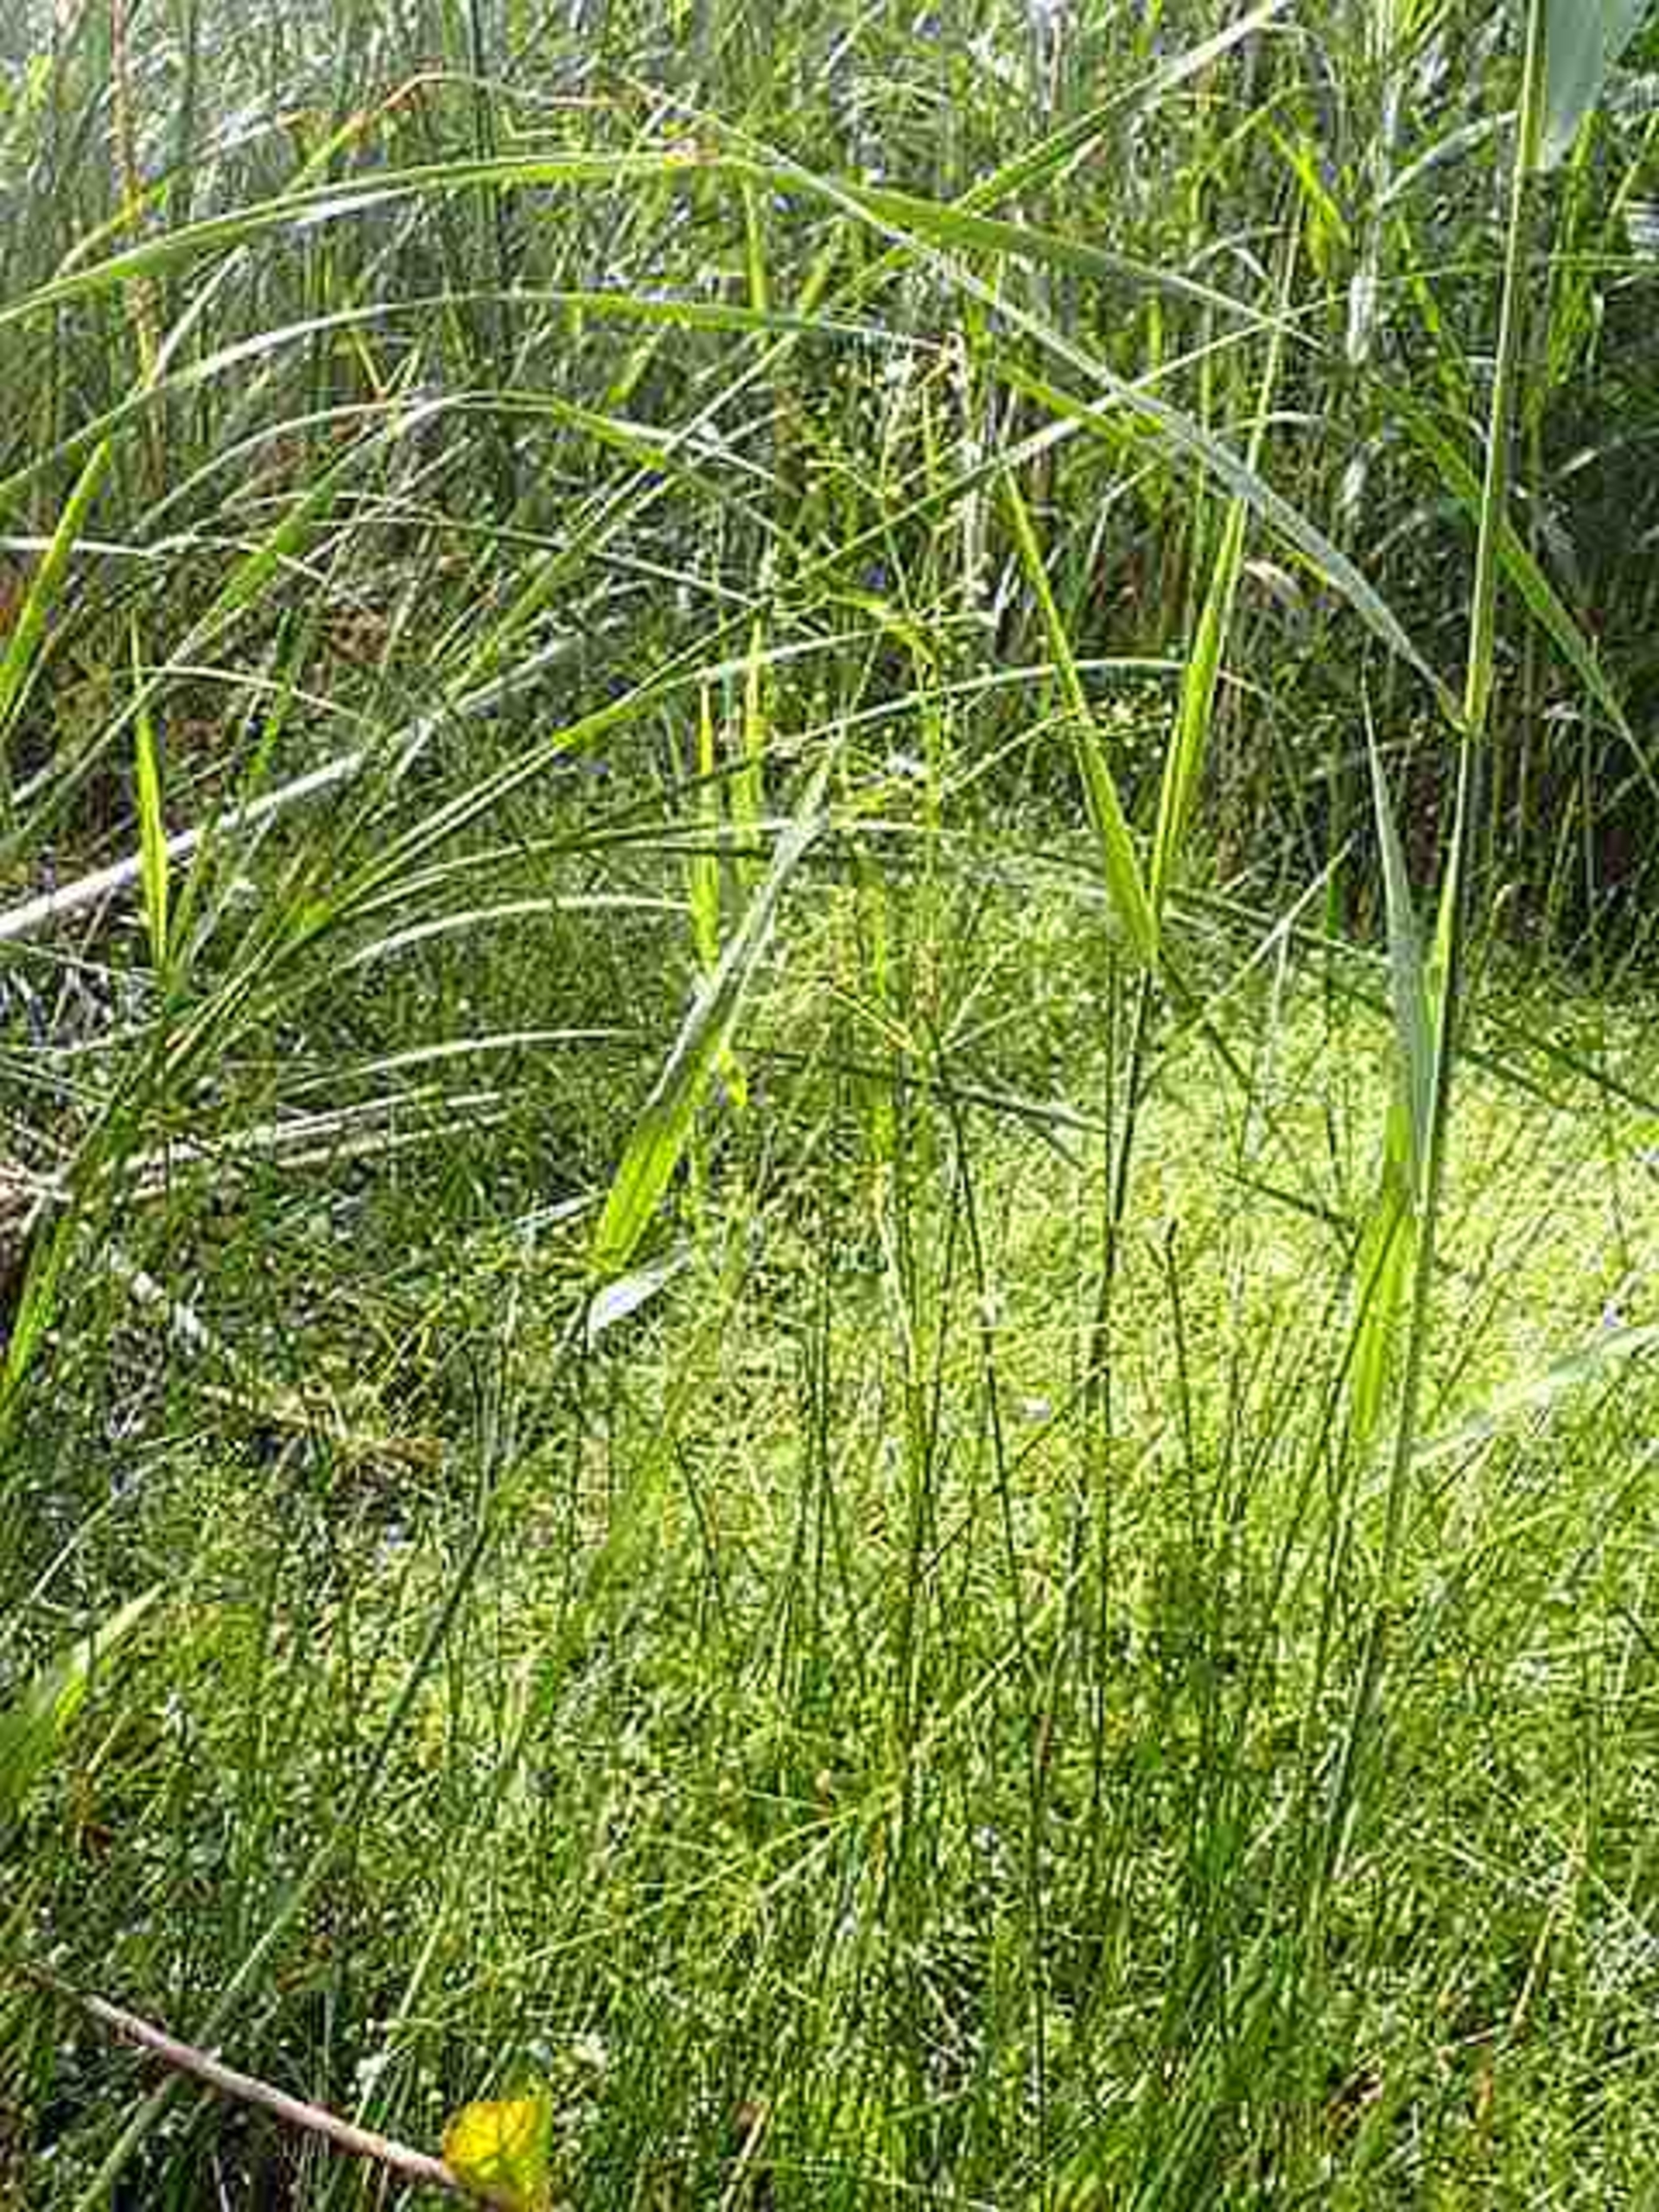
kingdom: Plantae
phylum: Tracheophyta
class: Liliopsida
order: Alismatales
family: Alismataceae
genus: Alisma
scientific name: Alisma plantago-aquatica
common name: Vejbred-skeblad
